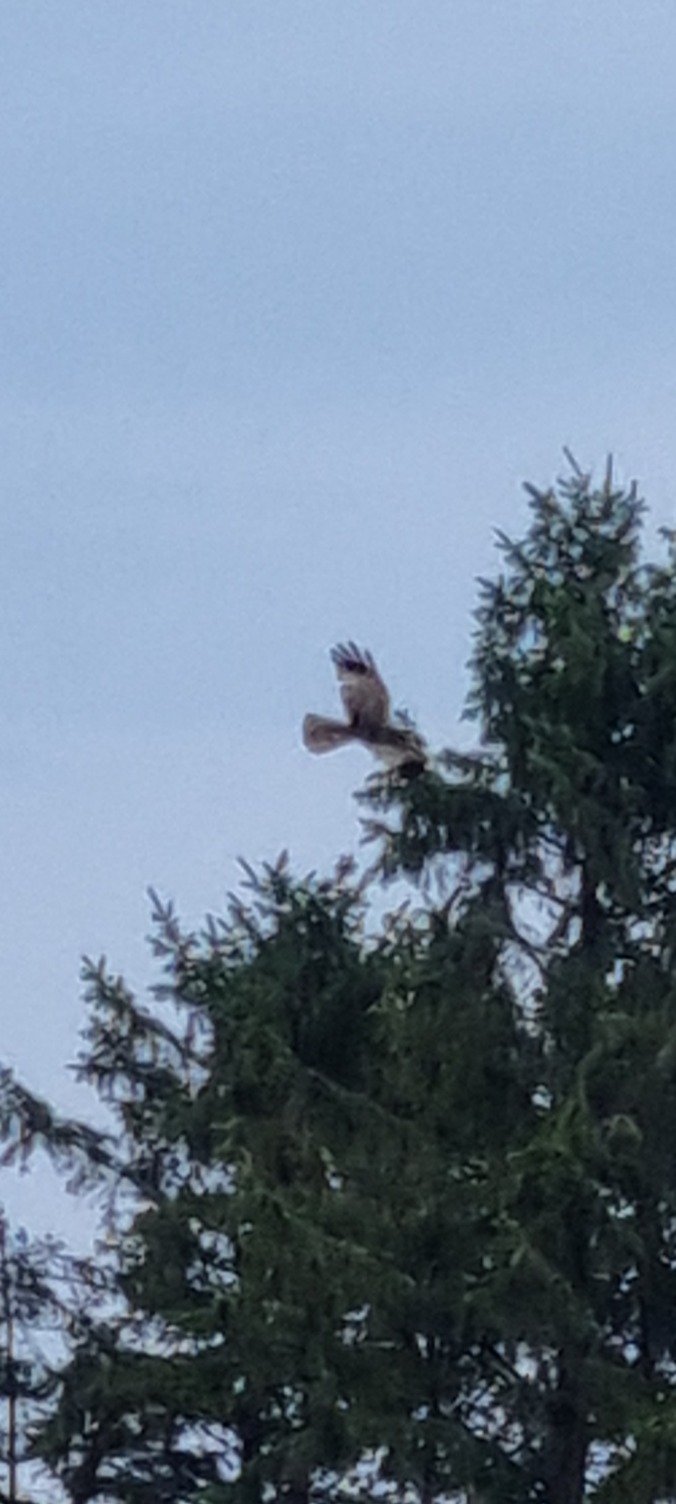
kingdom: Animalia
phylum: Chordata
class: Aves
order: Accipitriformes
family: Accipitridae
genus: Circus
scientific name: Circus aeruginosus
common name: Rørhøg
